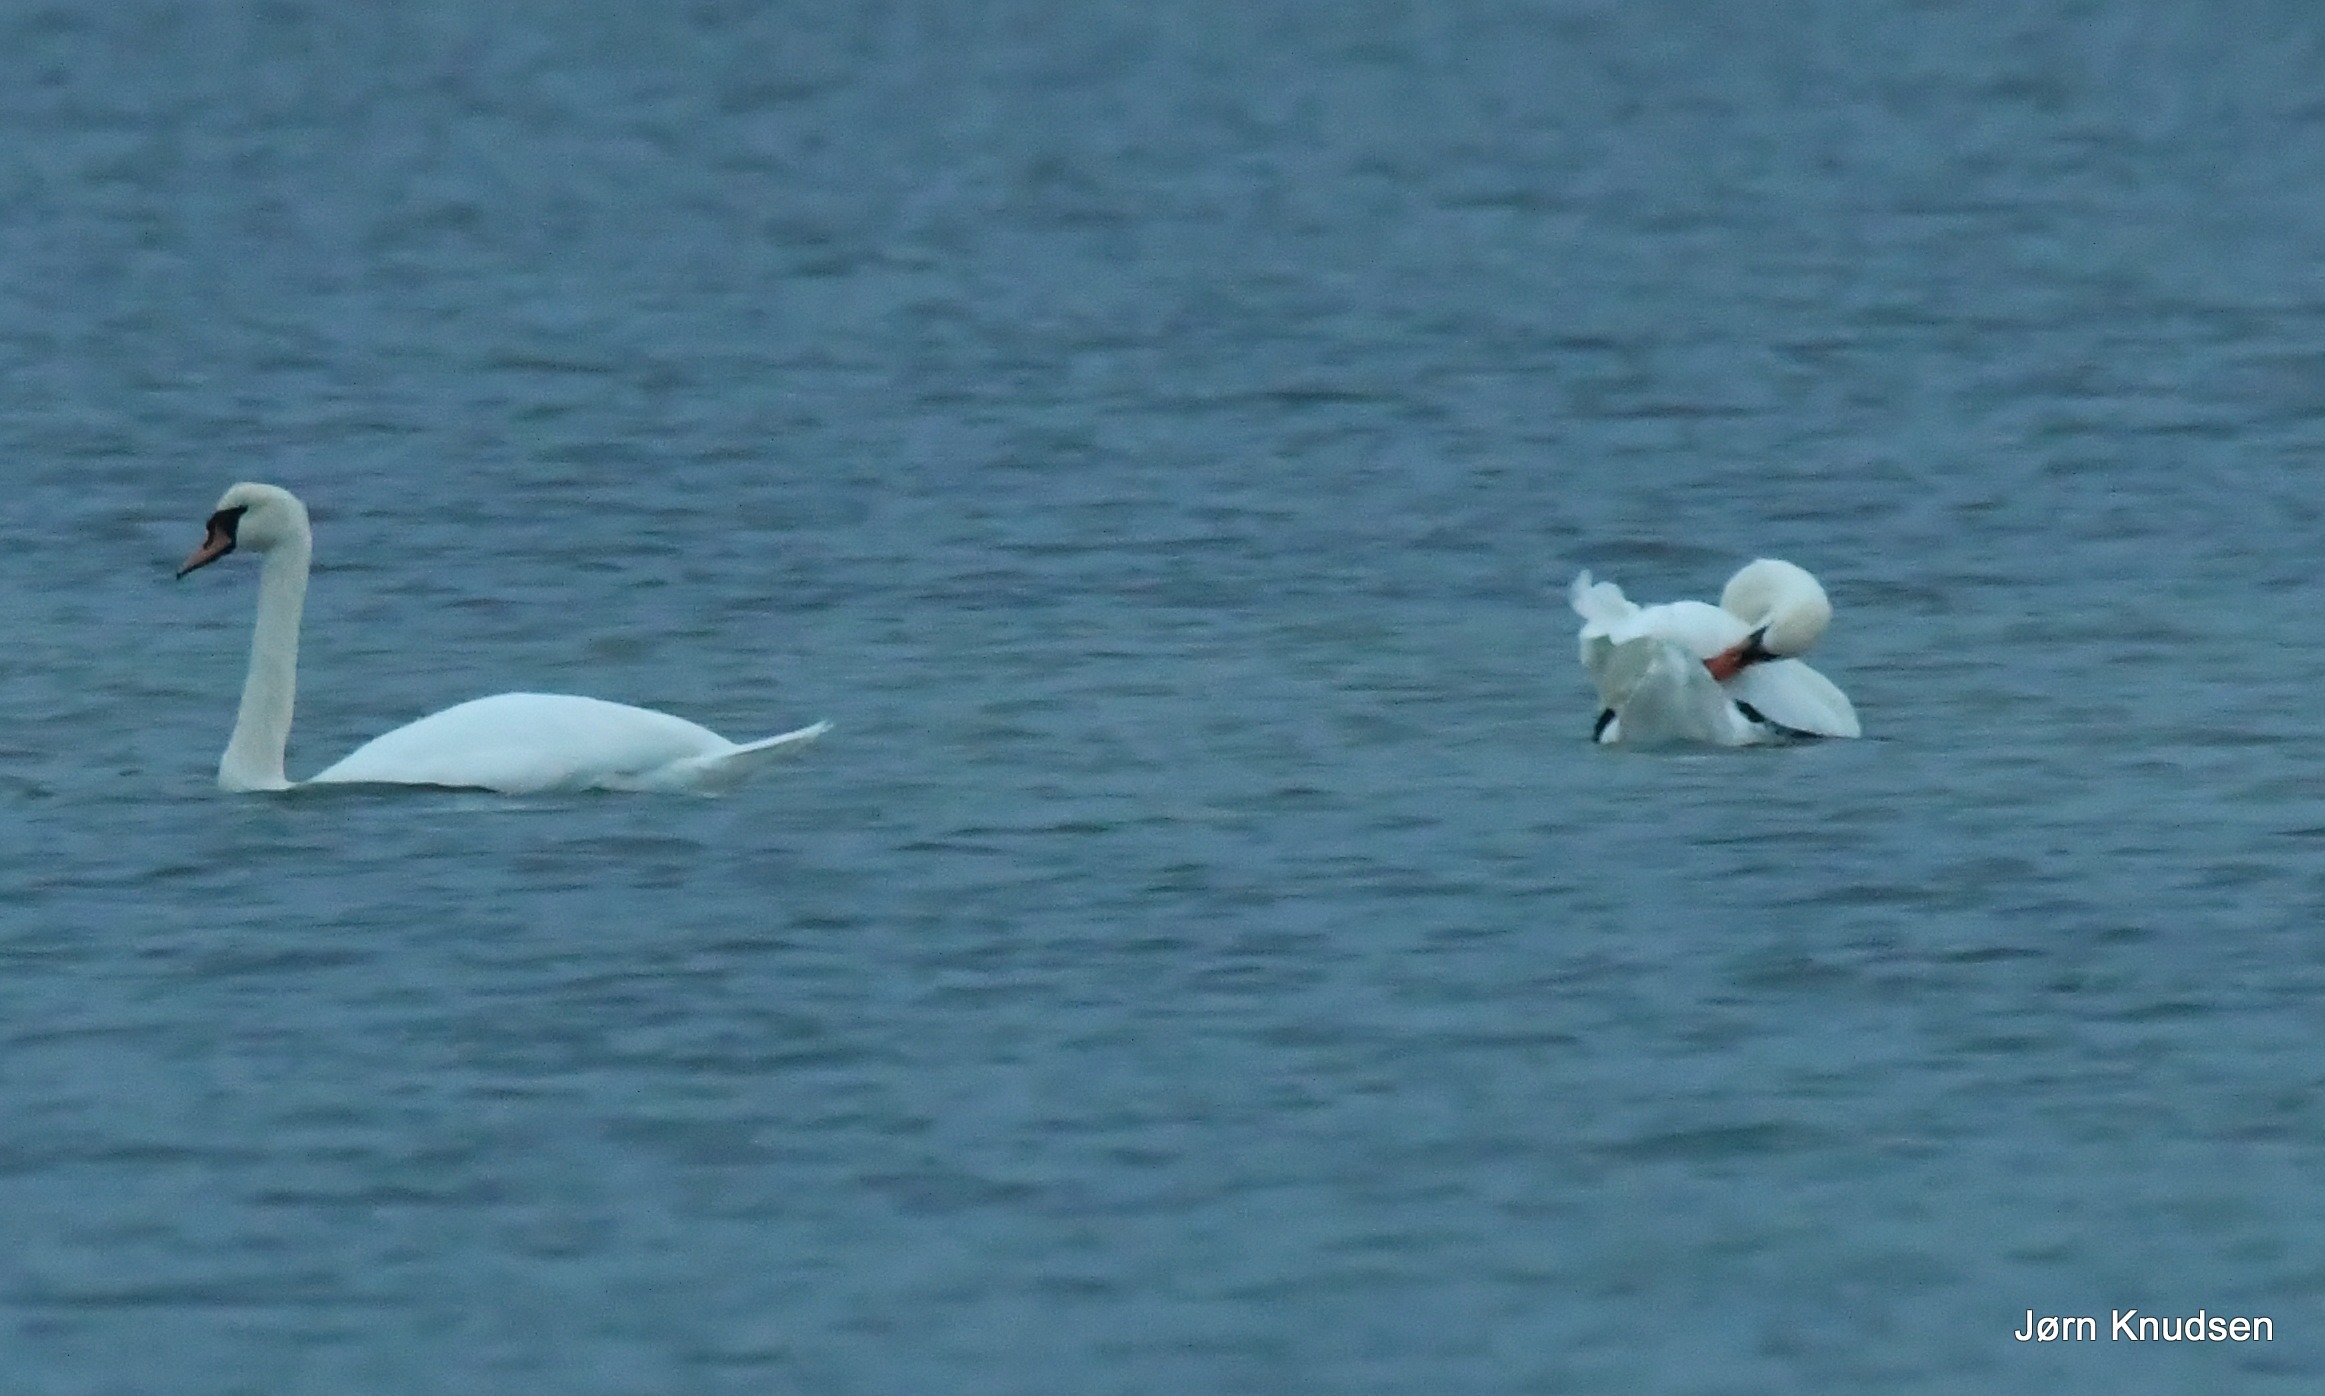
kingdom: Animalia
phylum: Chordata
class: Aves
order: Anseriformes
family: Anatidae
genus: Cygnus
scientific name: Cygnus olor
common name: Knopsvane
